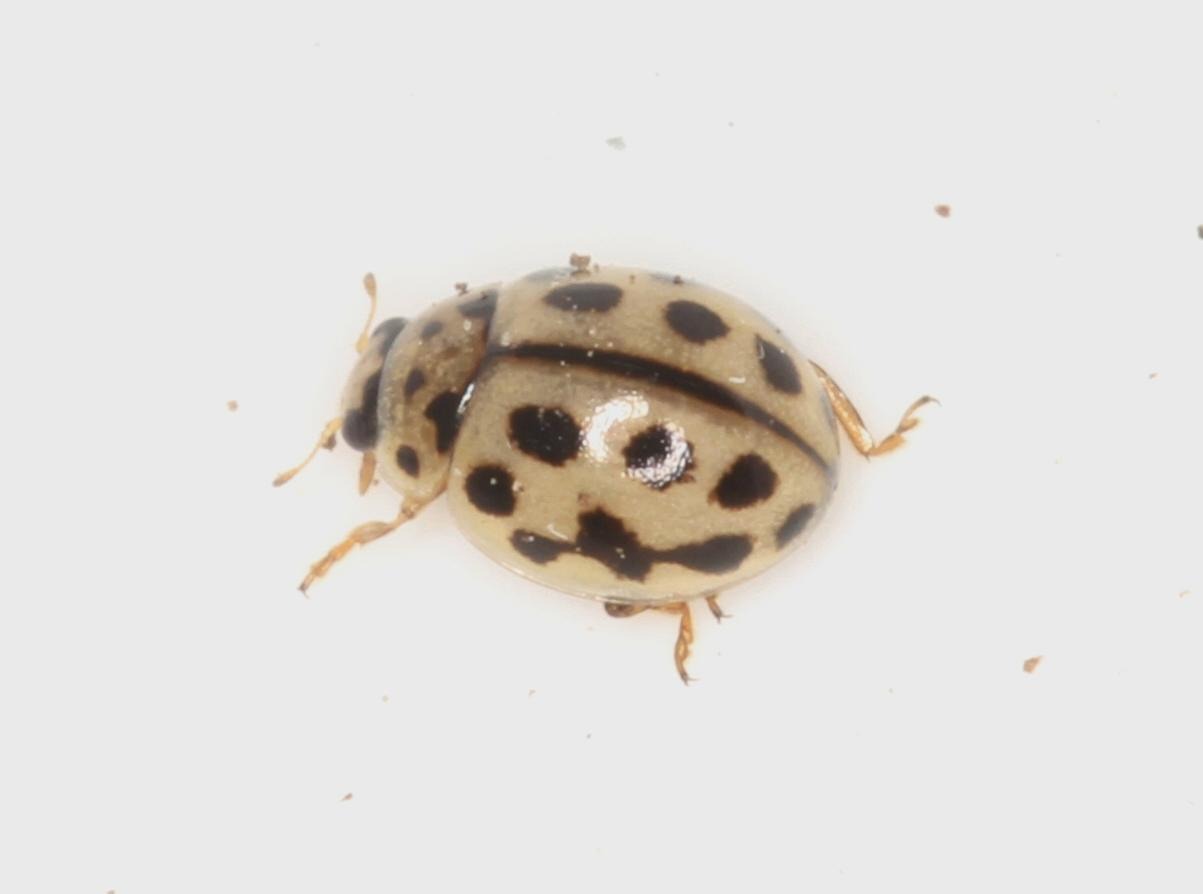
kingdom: Animalia
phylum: Arthropoda
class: Insecta
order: Coleoptera
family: Coccinellidae
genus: Tytthaspis
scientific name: Tytthaspis sedecimpunctata
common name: Sekstenprikket mariehøne
